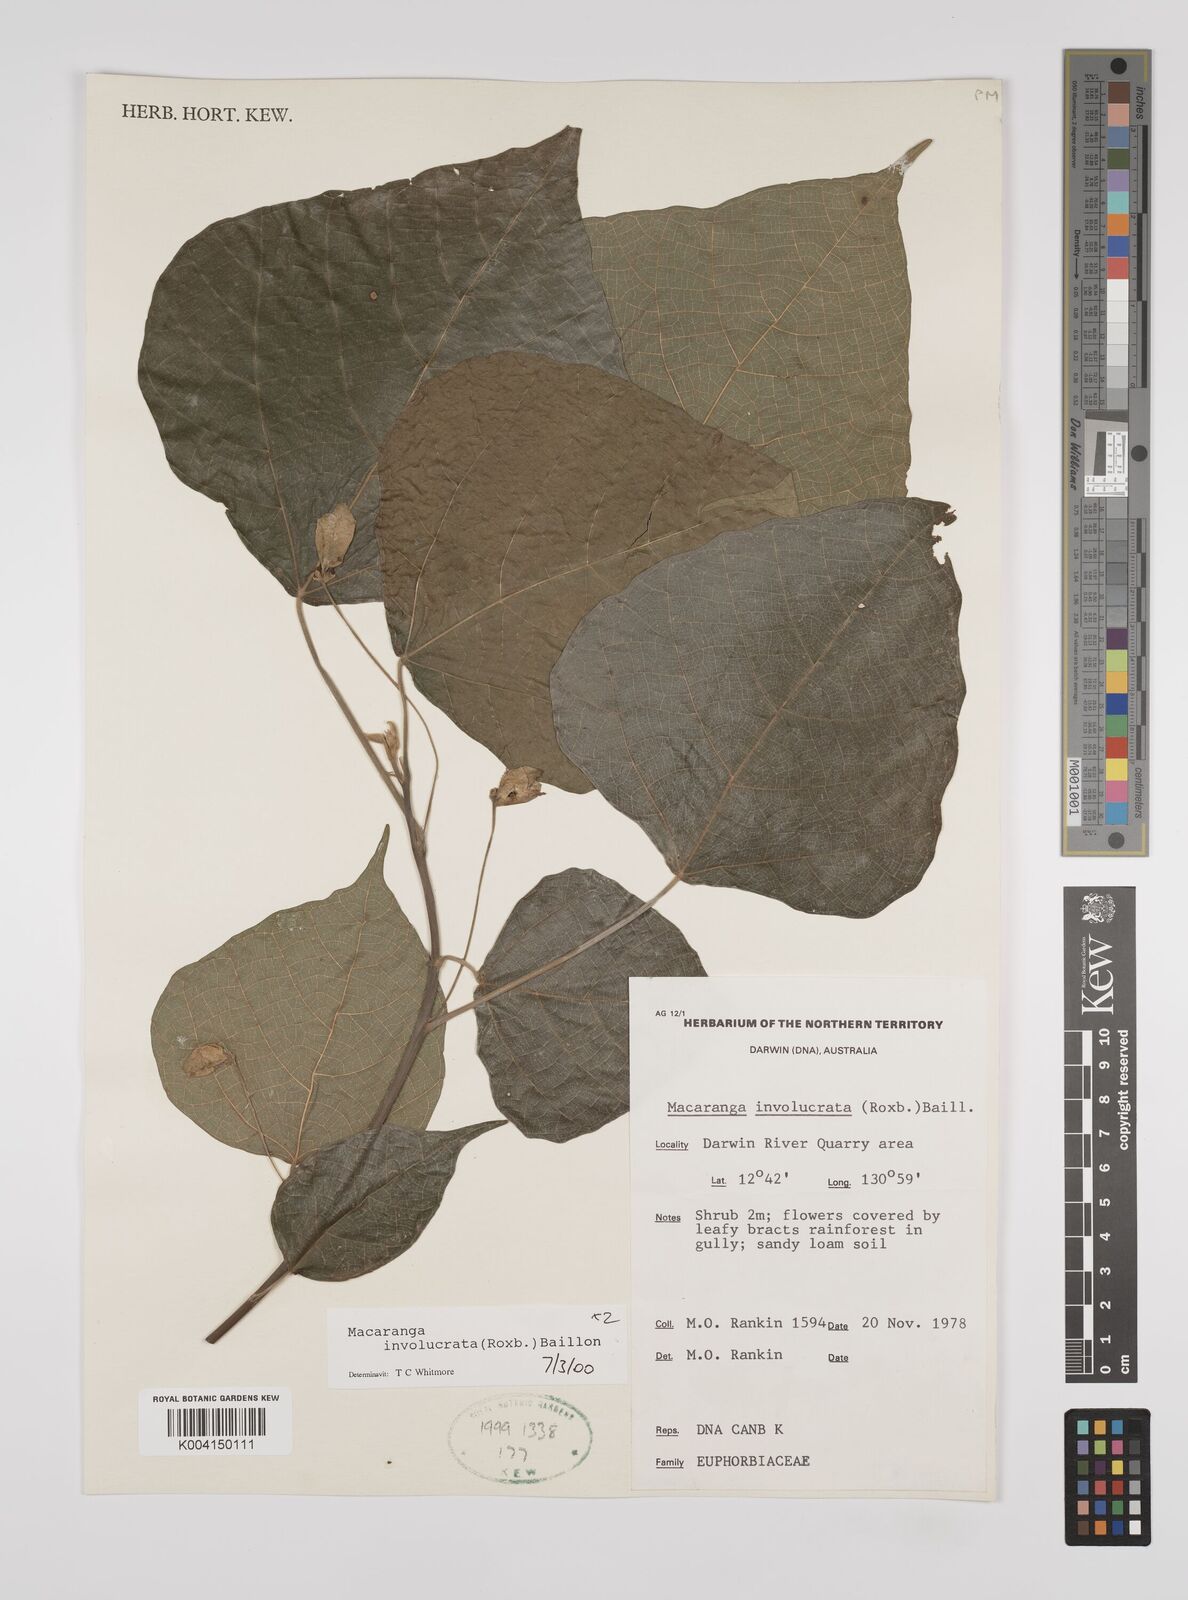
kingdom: Plantae
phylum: Tracheophyta
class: Magnoliopsida
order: Malpighiales
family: Euphorbiaceae
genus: Macaranga
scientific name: Macaranga involucrata
